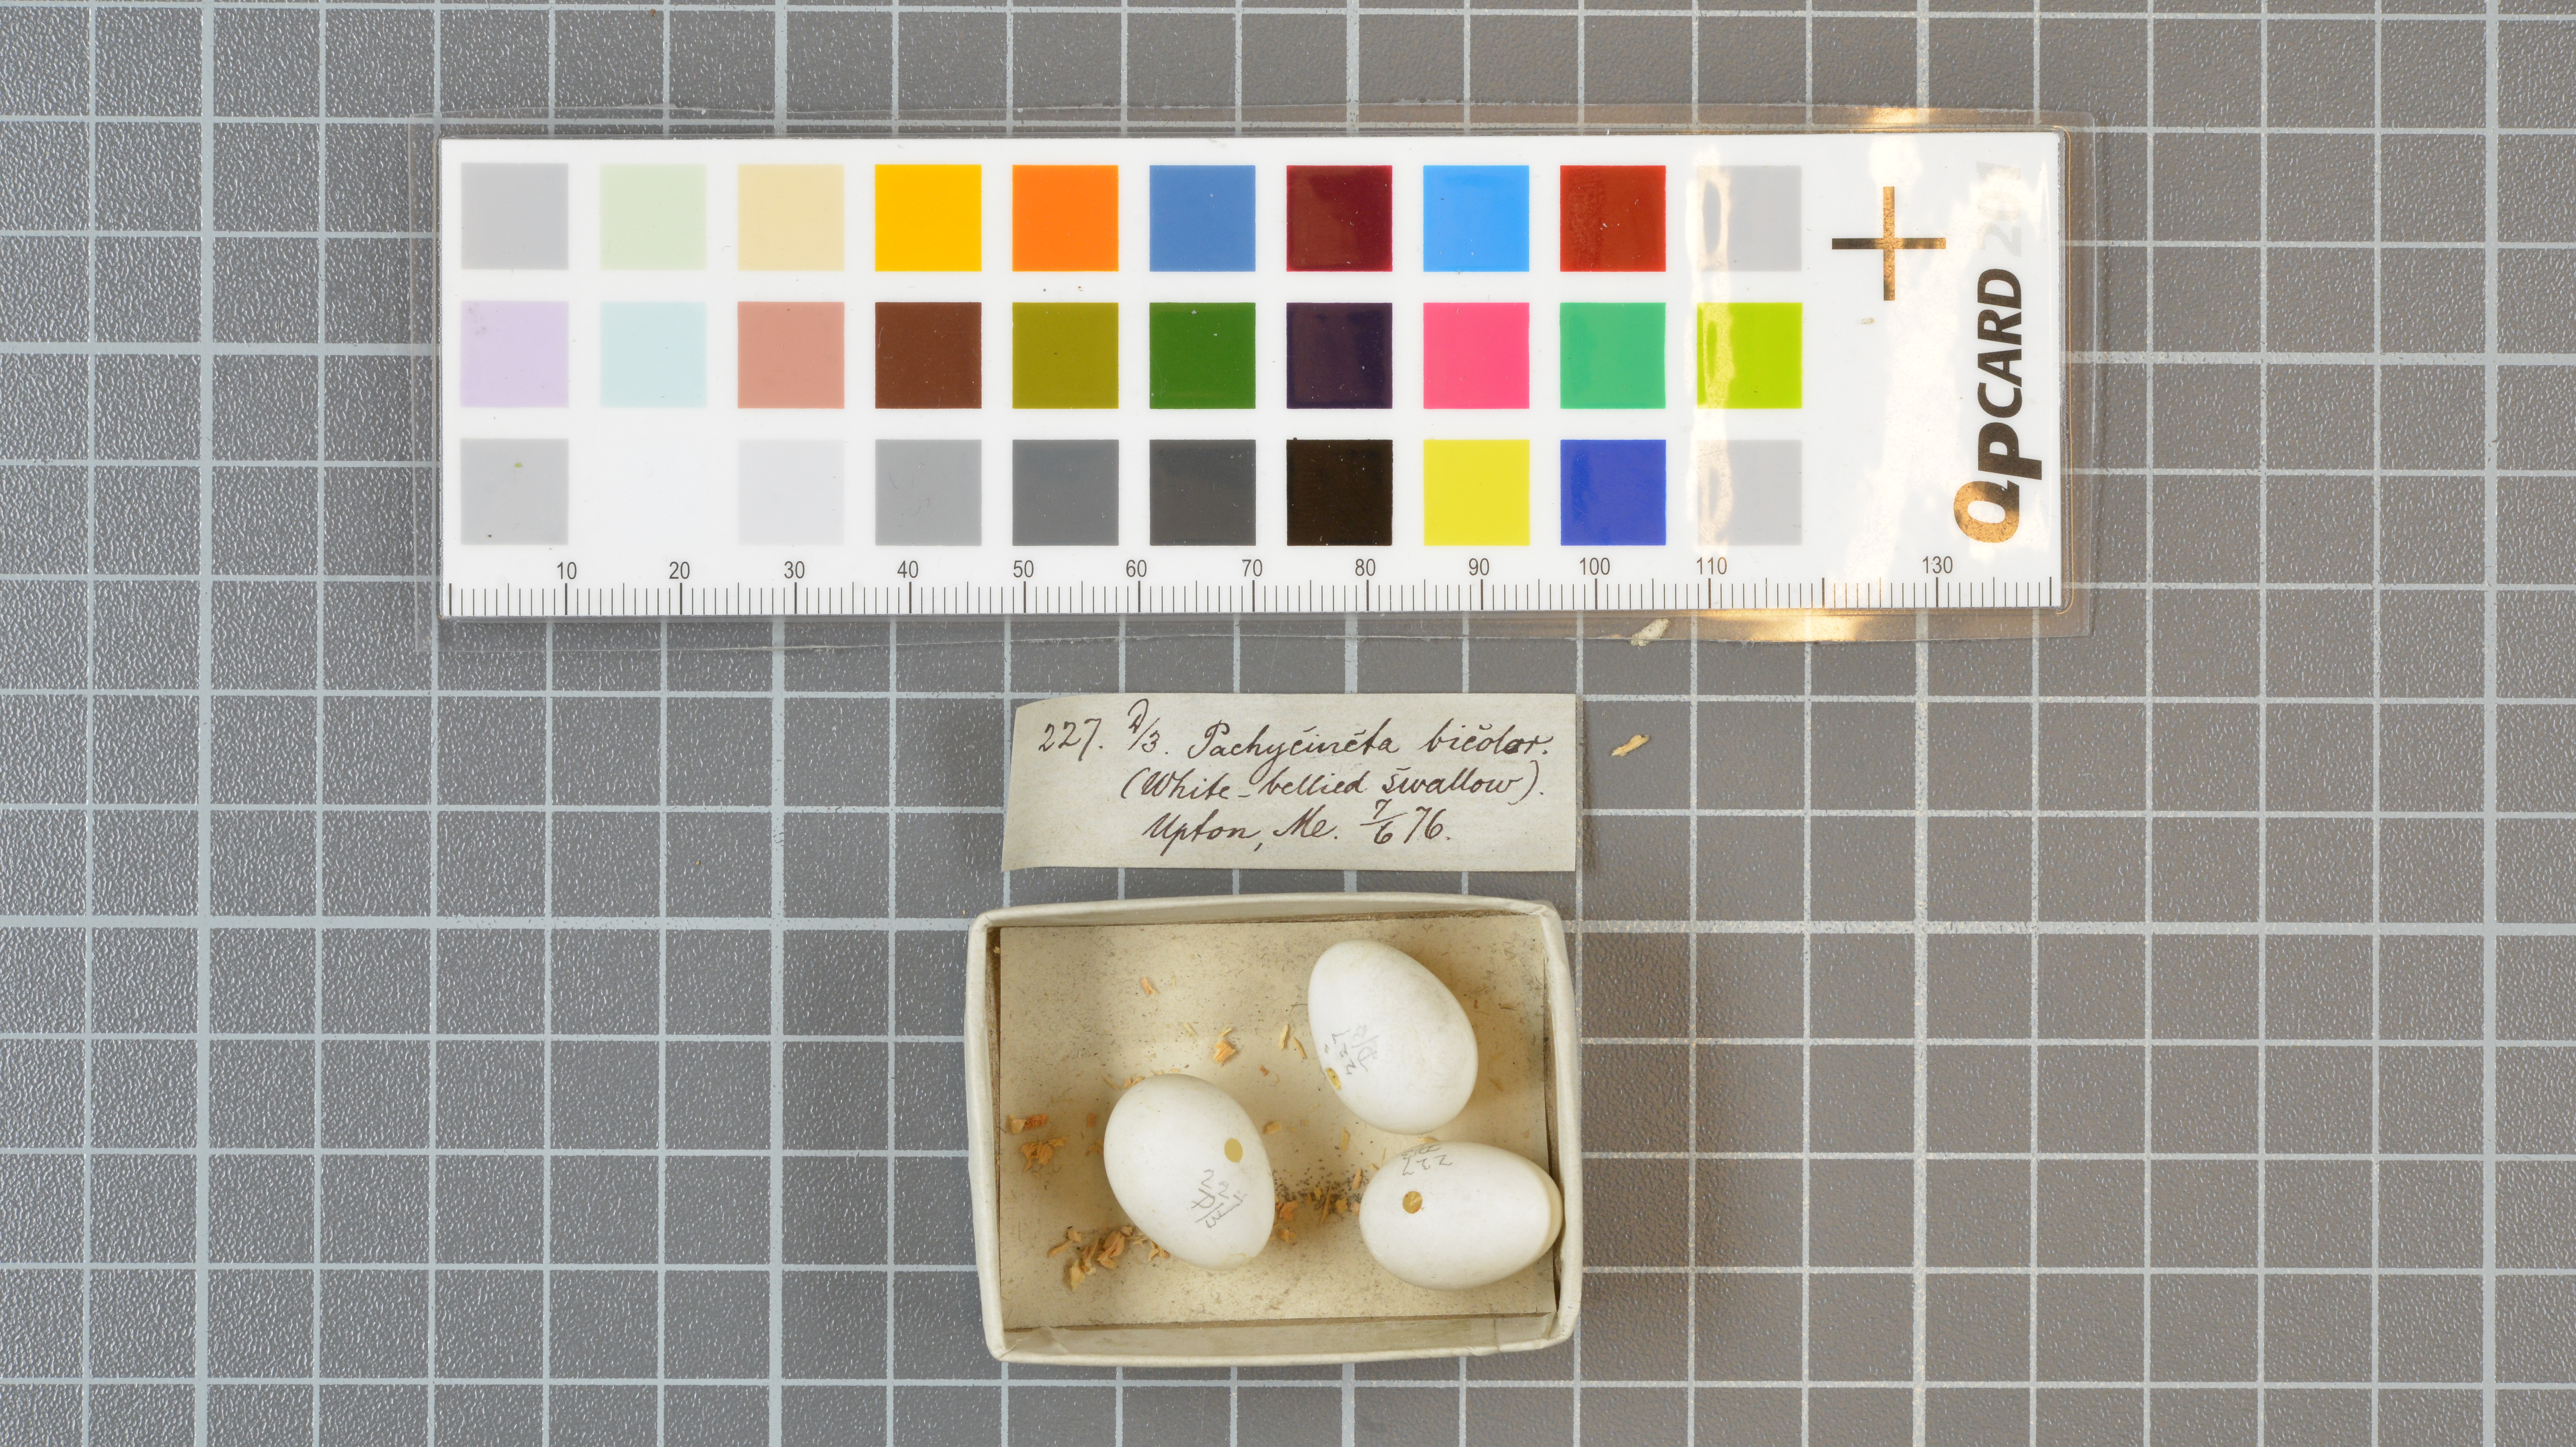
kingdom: Animalia
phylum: Chordata
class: Aves
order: Passeriformes
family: Hirundinidae
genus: Tachycineta
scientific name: Tachycineta bicolor
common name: Tree swallow
